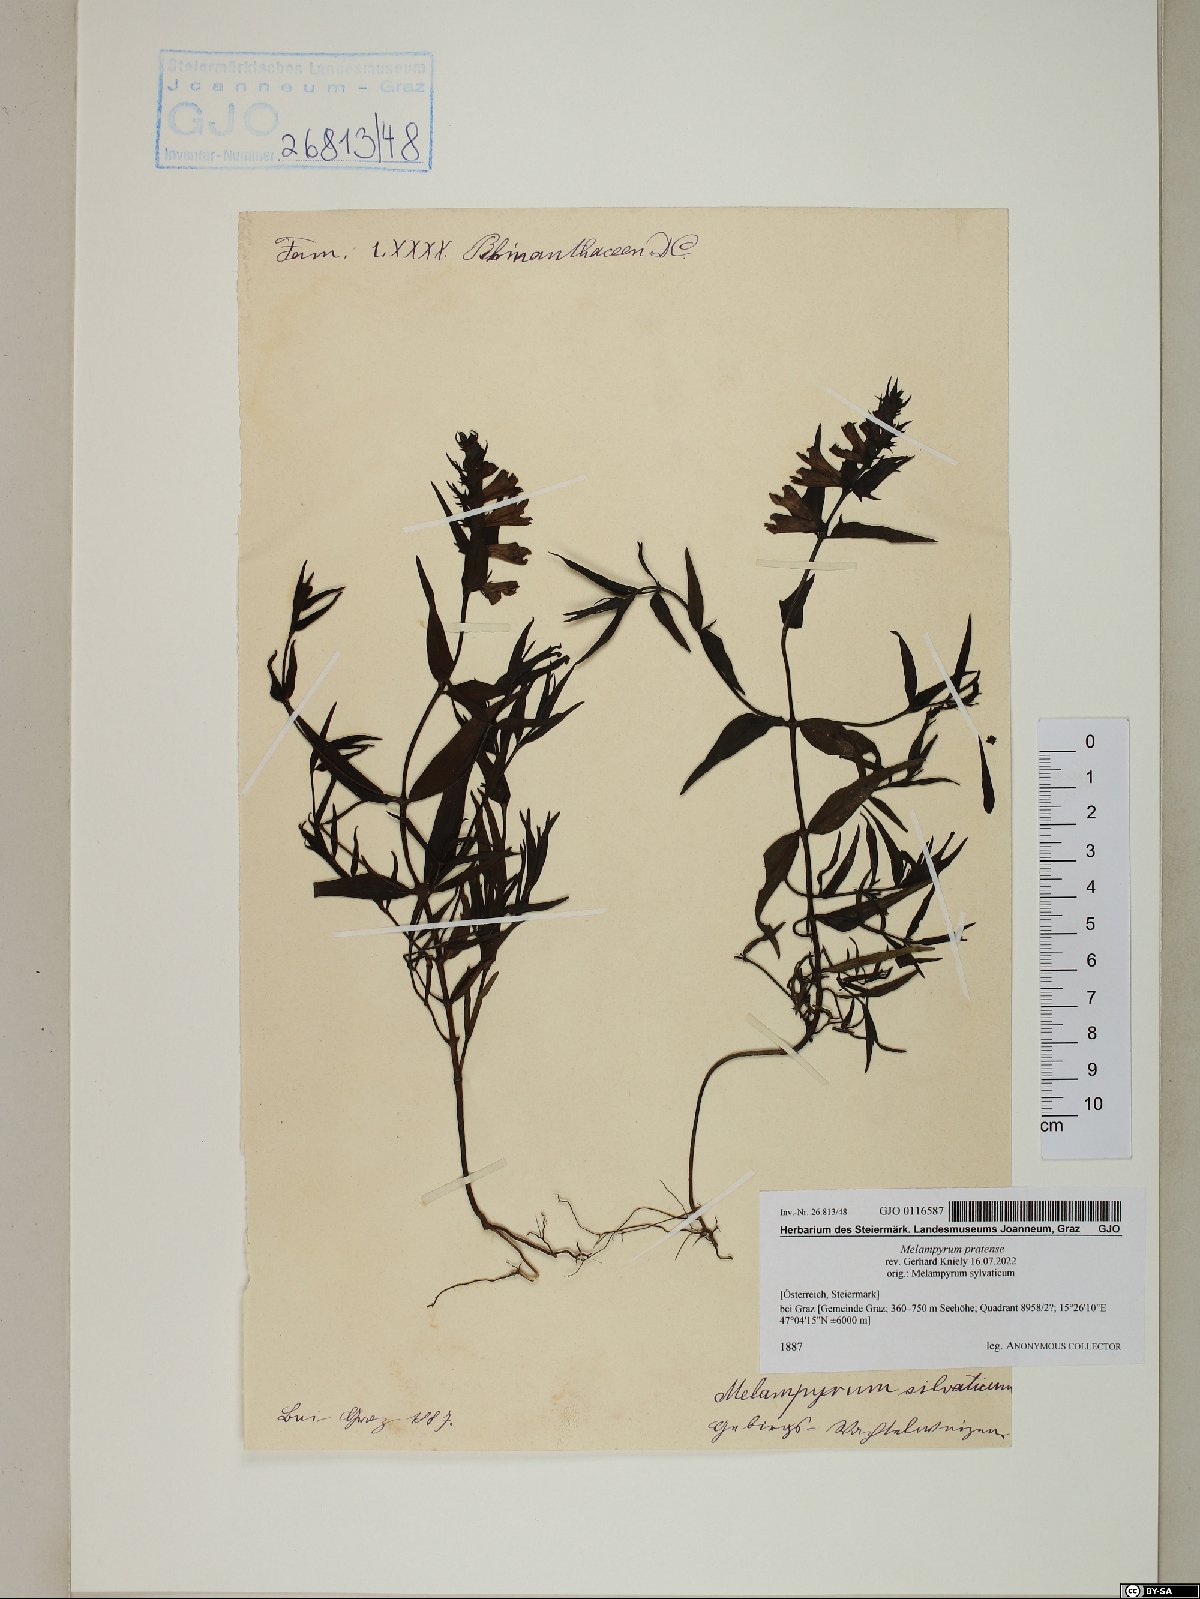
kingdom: Plantae
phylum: Tracheophyta
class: Magnoliopsida
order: Lamiales
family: Orobanchaceae
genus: Melampyrum
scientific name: Melampyrum pratense
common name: Common cow-wheat
